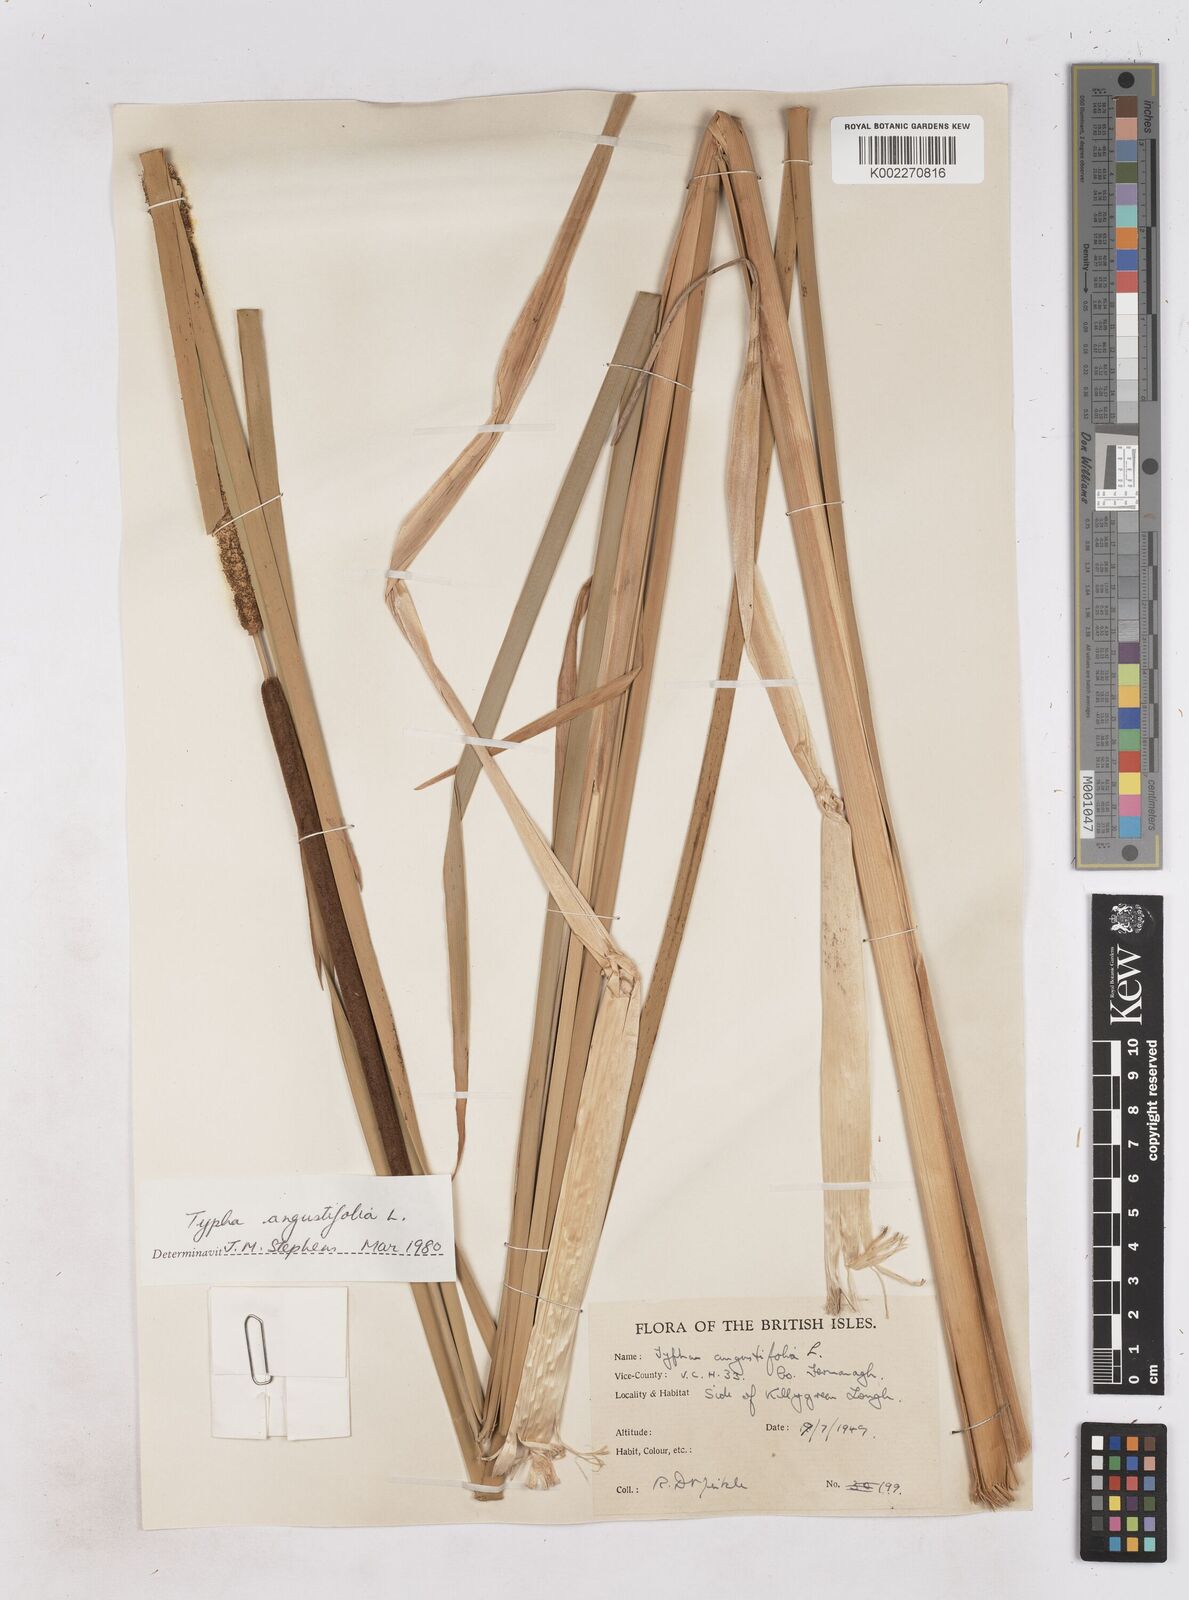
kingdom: Plantae
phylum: Tracheophyta
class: Liliopsida
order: Poales
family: Typhaceae
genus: Typha
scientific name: Typha angustifolia
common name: Lesser bulrush
